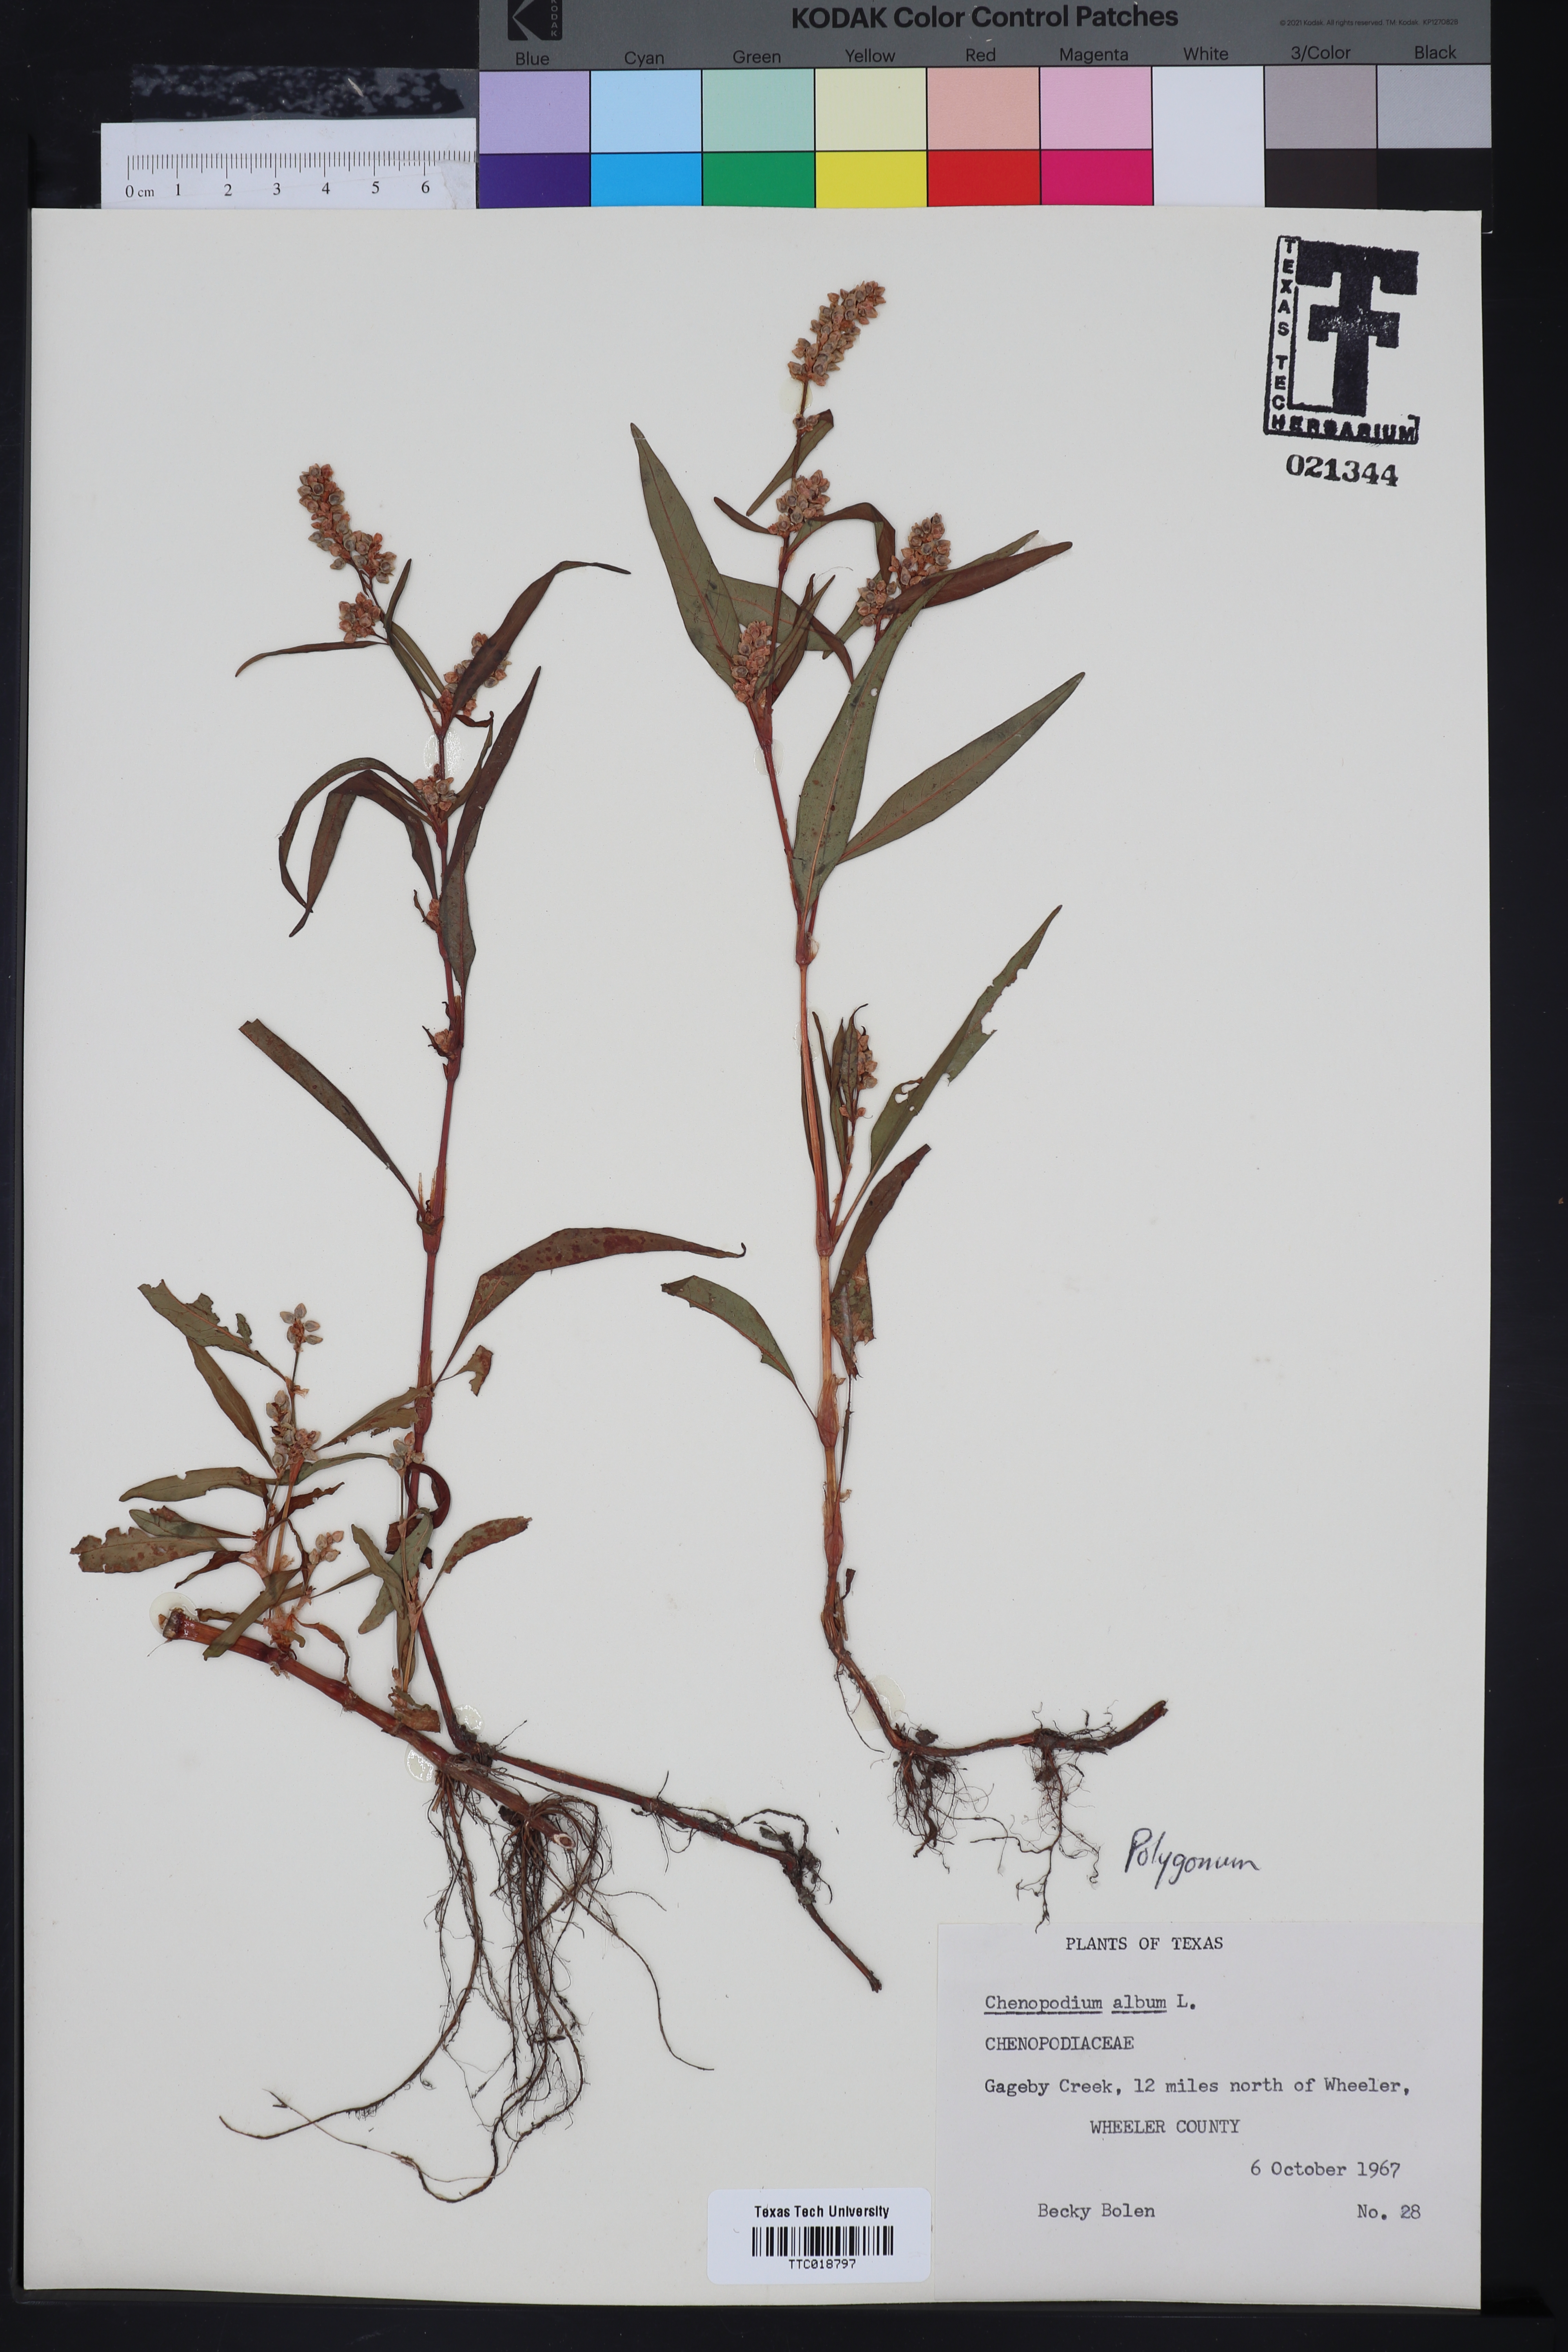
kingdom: Plantae
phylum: Tracheophyta
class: Magnoliopsida
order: Caryophyllales
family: Polygonaceae
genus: Polygonum
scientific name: Polygonum
